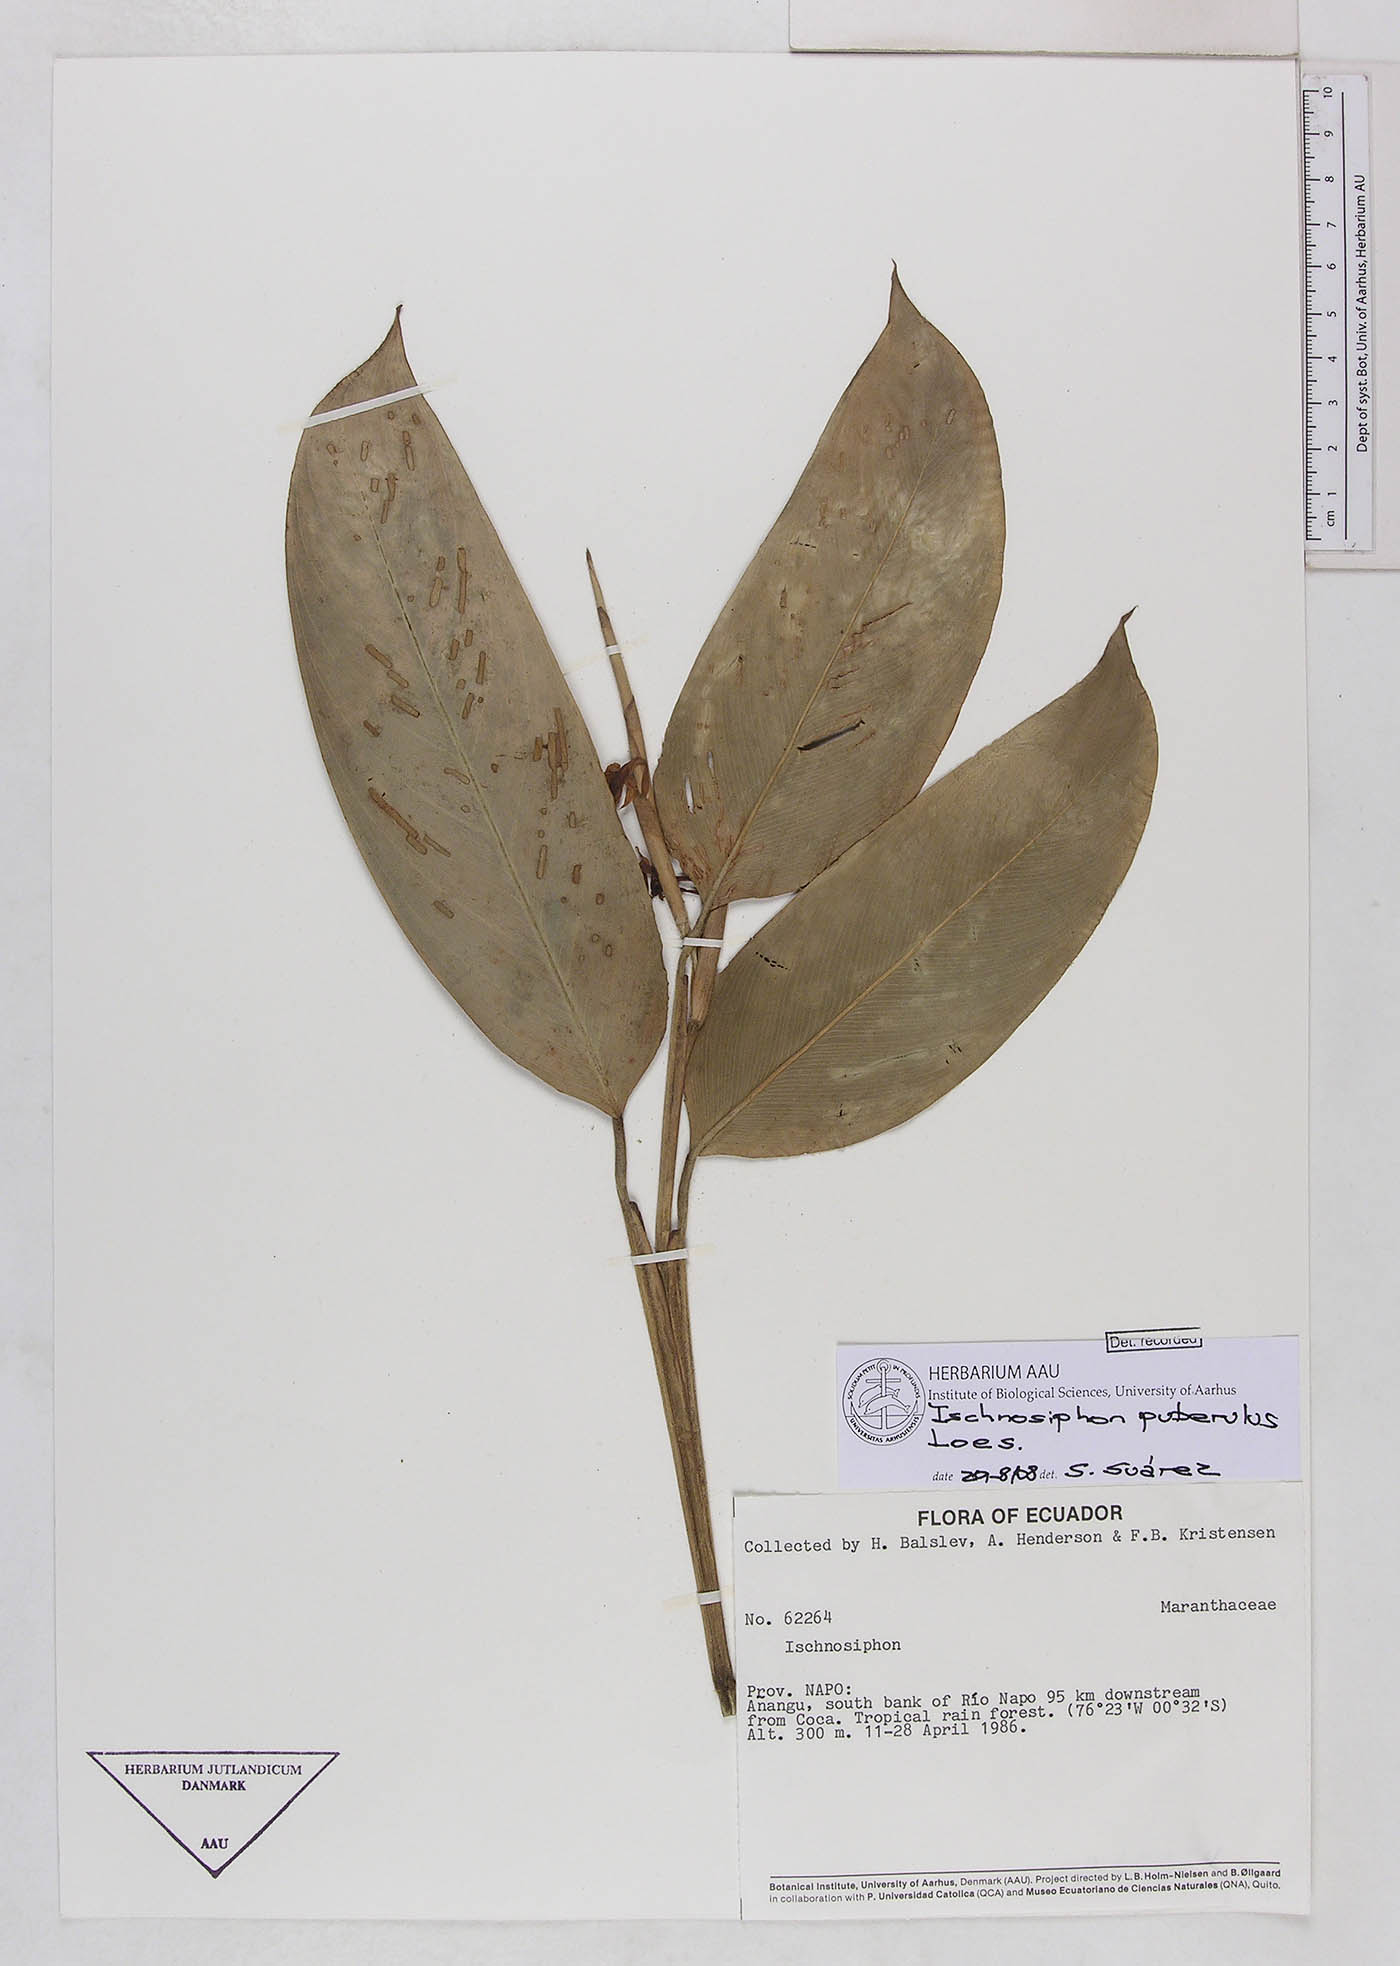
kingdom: Plantae
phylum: Tracheophyta
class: Liliopsida
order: Zingiberales
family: Marantaceae
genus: Ischnosiphon
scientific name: Ischnosiphon puberulus
